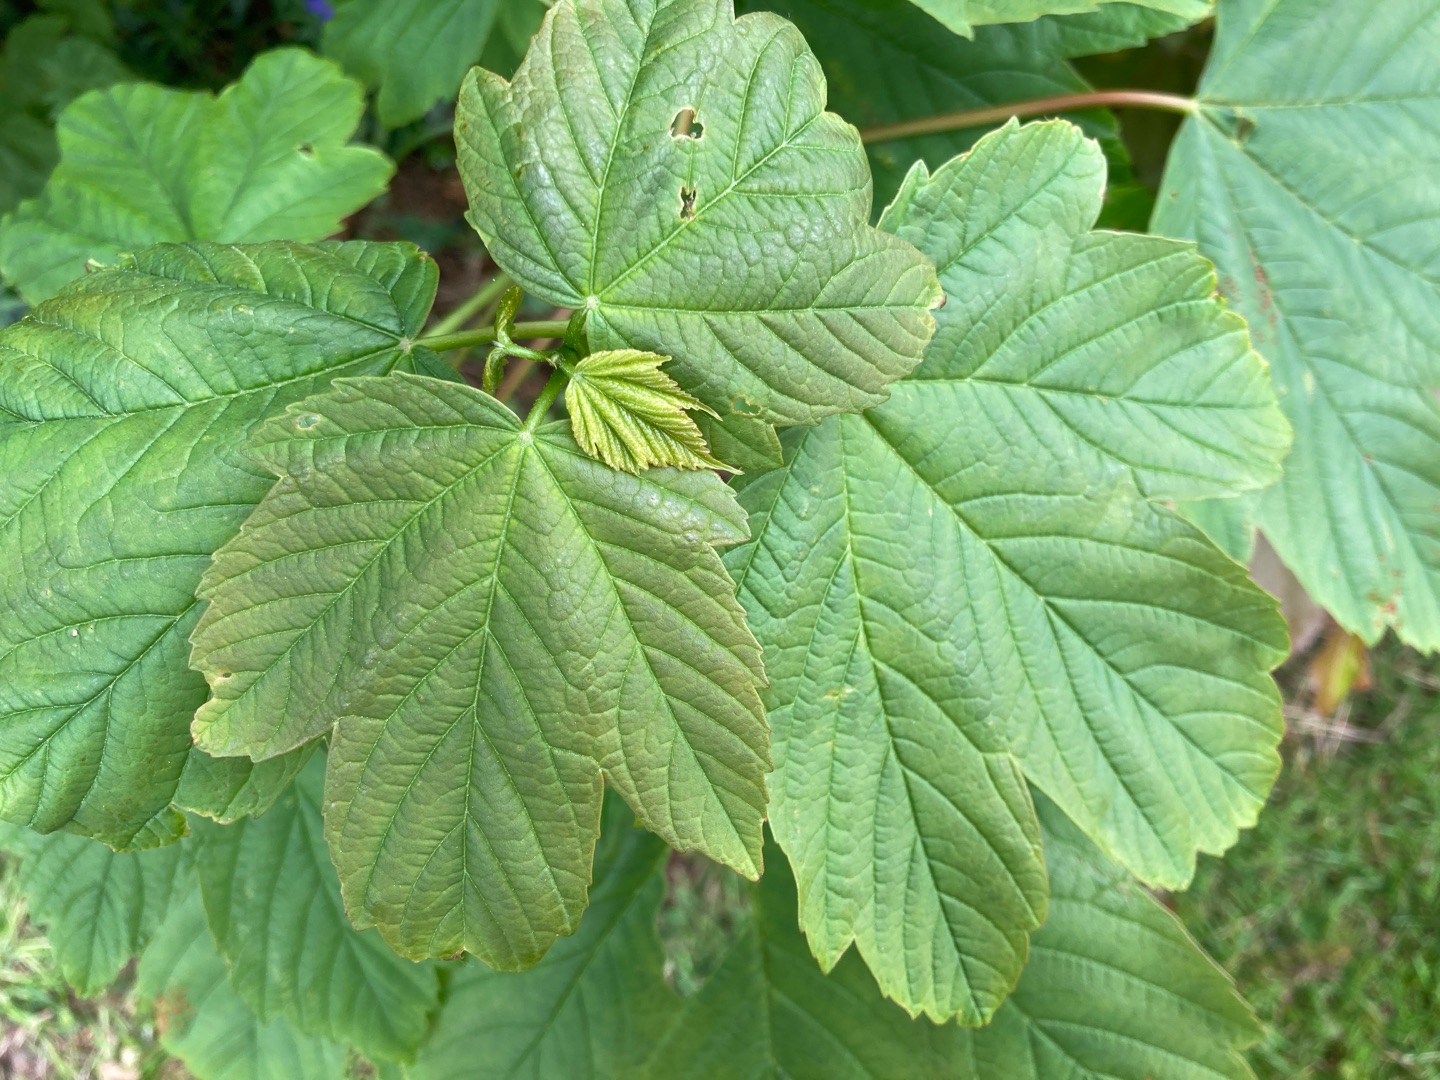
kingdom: Plantae
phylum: Tracheophyta
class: Magnoliopsida
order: Sapindales
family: Sapindaceae
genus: Acer
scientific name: Acer pseudoplatanus
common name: Ahorn
